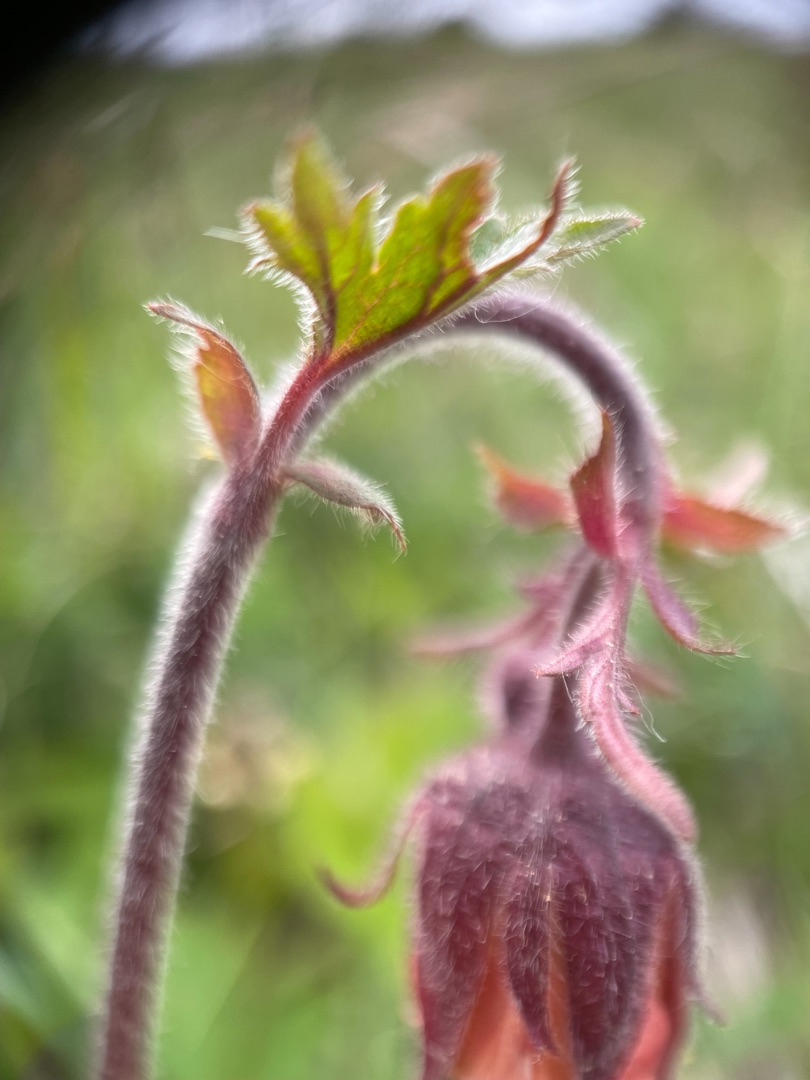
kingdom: Plantae
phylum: Tracheophyta
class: Magnoliopsida
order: Rosales
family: Rosaceae
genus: Geum
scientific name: Geum rivale
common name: Eng-nellikerod
